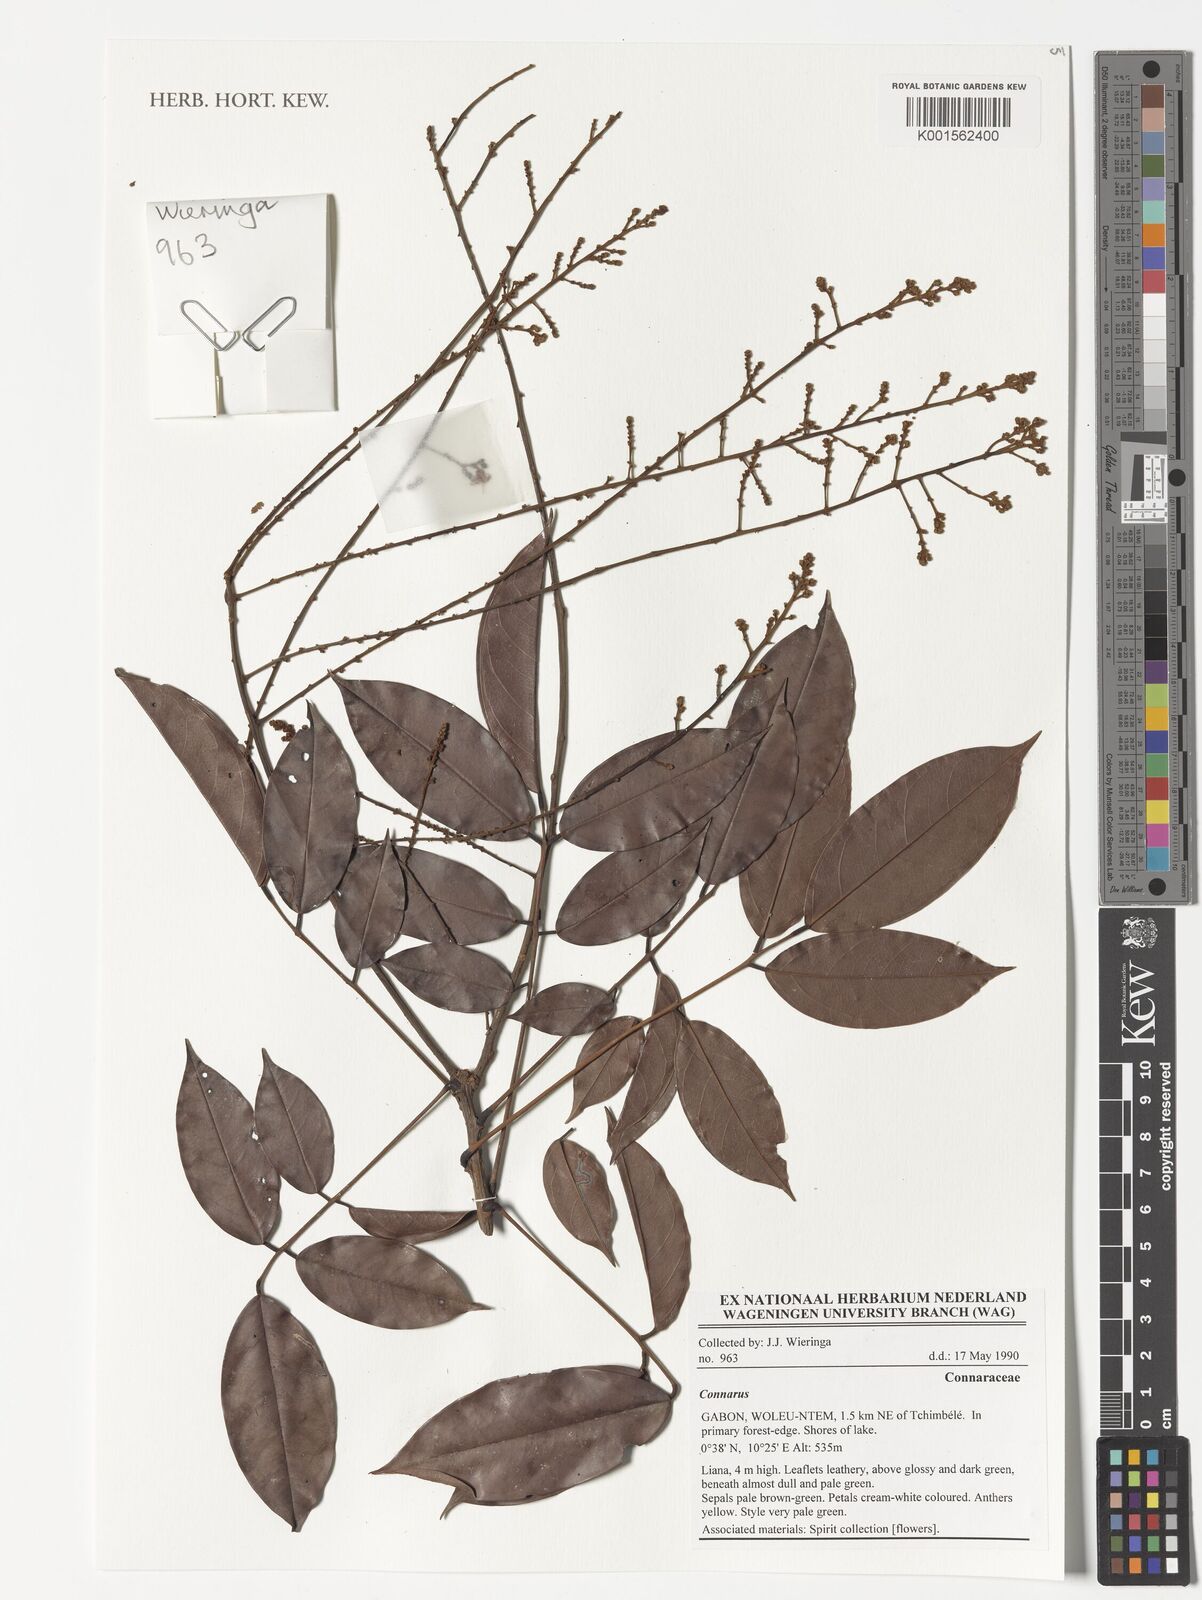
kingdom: Plantae
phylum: Tracheophyta
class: Magnoliopsida
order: Oxalidales
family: Connaraceae
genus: Connarus
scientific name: Connarus
